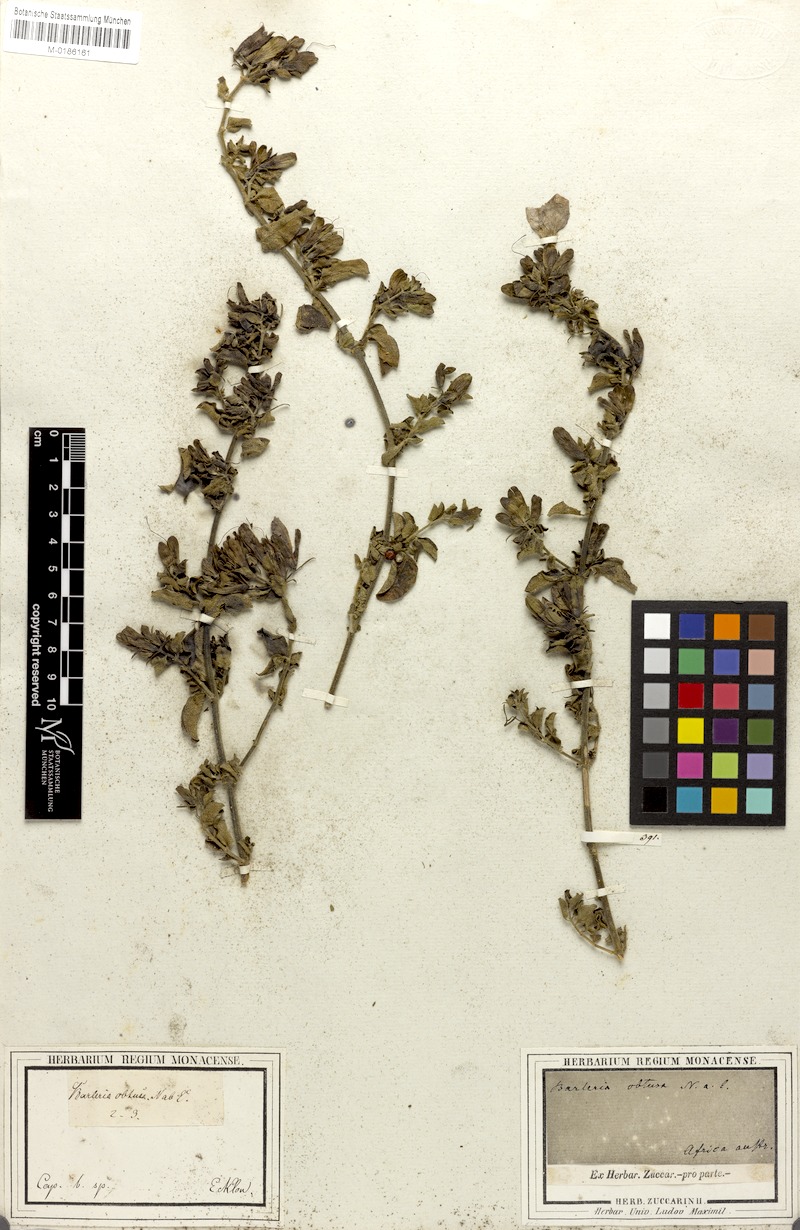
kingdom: Plantae
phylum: Tracheophyta
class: Magnoliopsida
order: Lamiales
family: Acanthaceae
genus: Barleria
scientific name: Barleria obtusa
